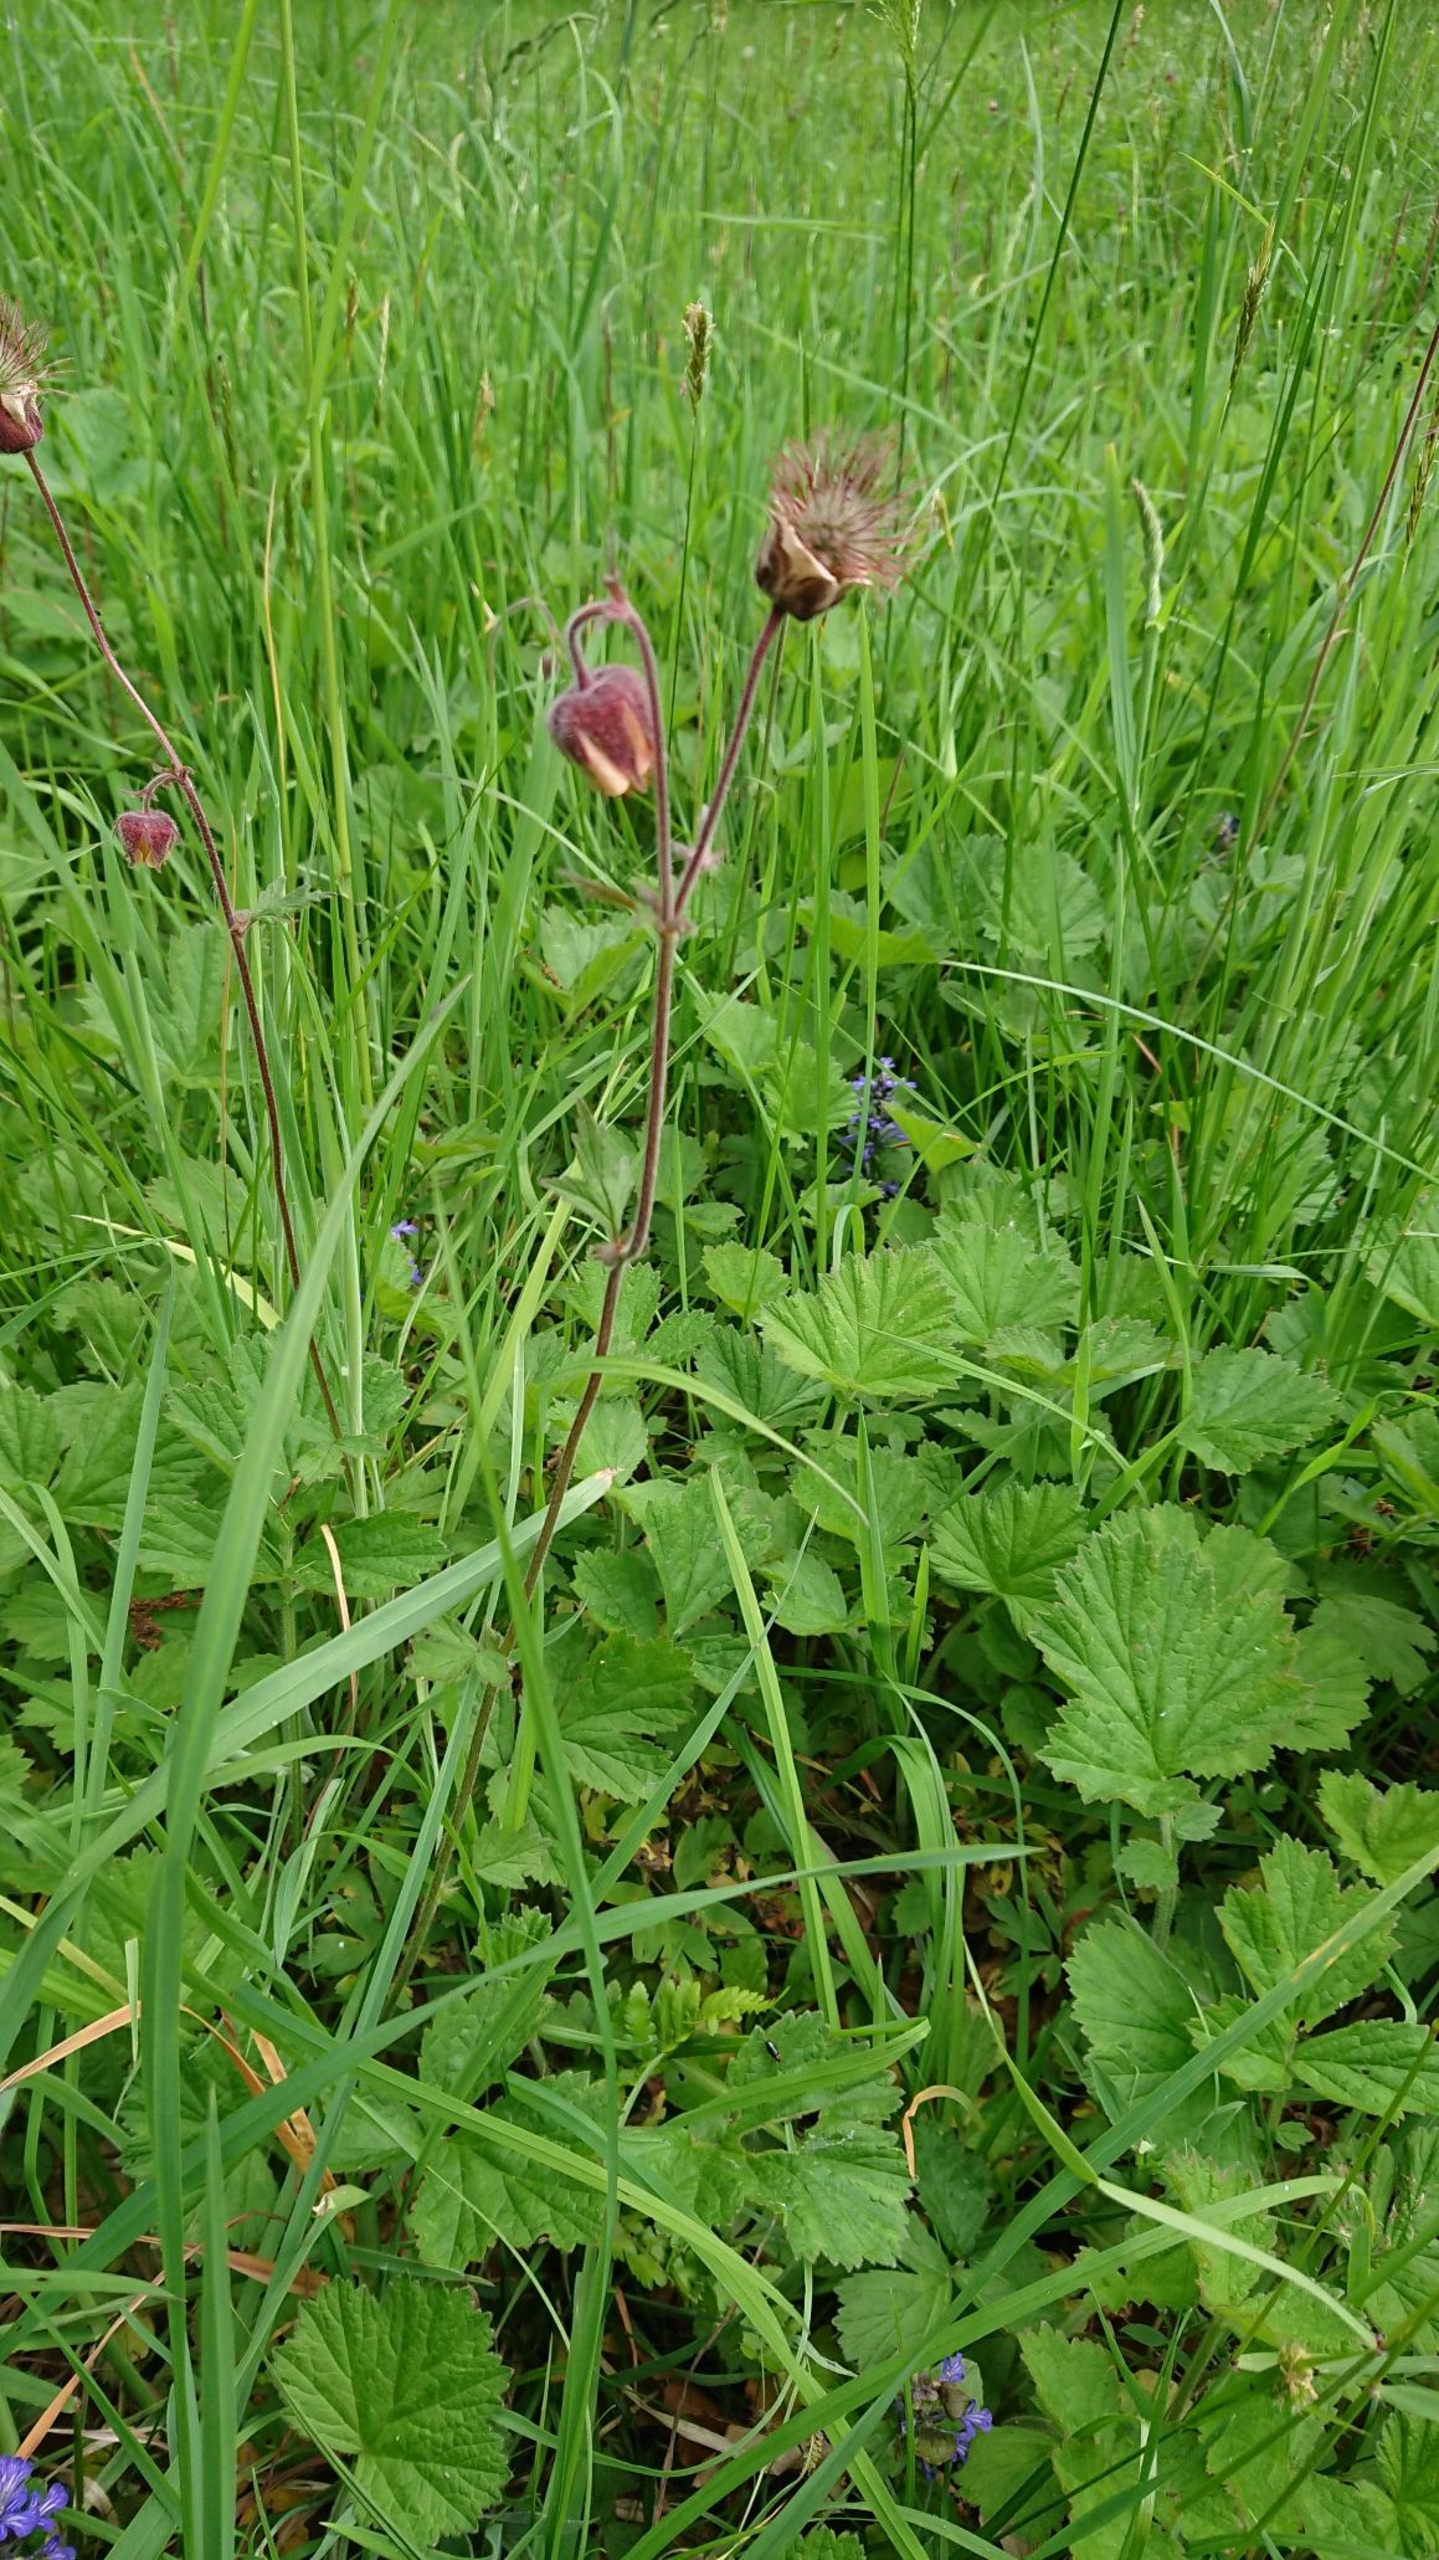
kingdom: Plantae
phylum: Tracheophyta
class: Magnoliopsida
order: Rosales
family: Rosaceae
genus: Geum
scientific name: Geum rivale
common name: Eng-nellikerod
